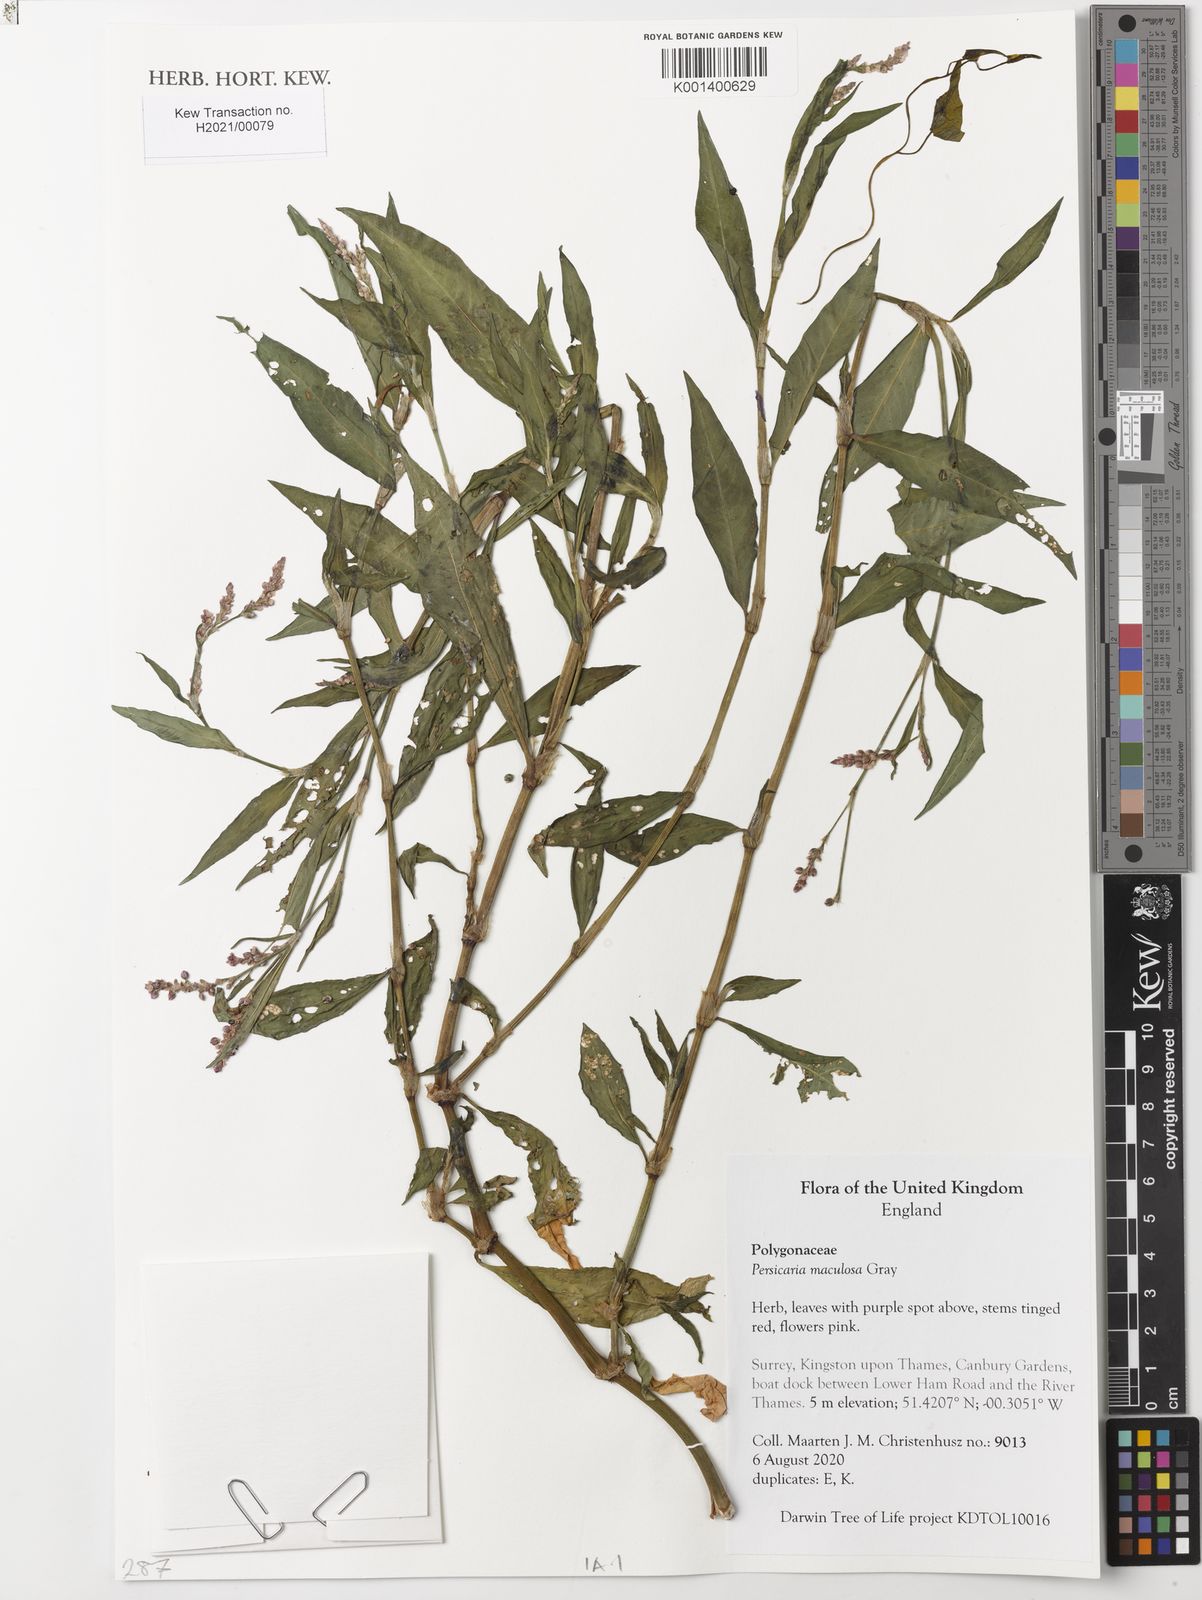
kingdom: Plantae
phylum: Tracheophyta
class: Magnoliopsida
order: Caryophyllales
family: Polygonaceae
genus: Persicaria
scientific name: Persicaria maculosa
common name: Redshank
